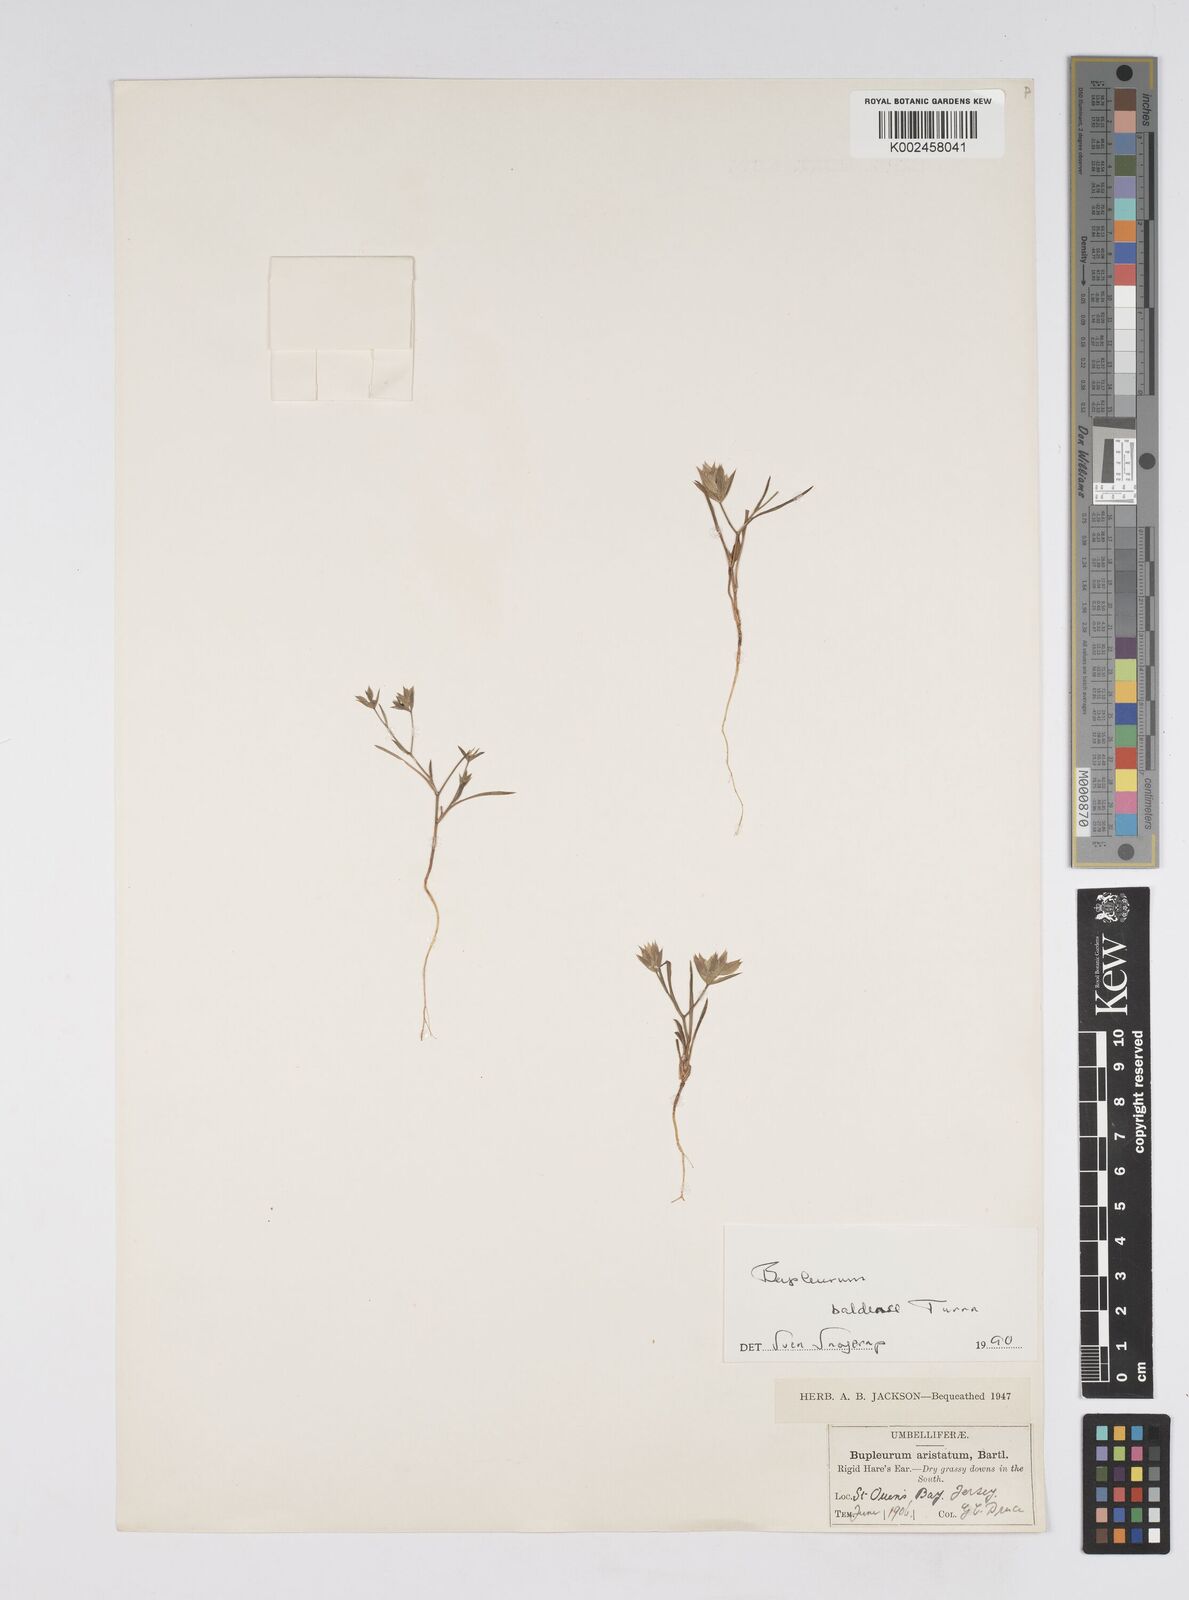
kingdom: Plantae
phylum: Tracheophyta
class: Magnoliopsida
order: Apiales
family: Apiaceae
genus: Bupleurum
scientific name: Bupleurum baldense
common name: Small hare's-ear
